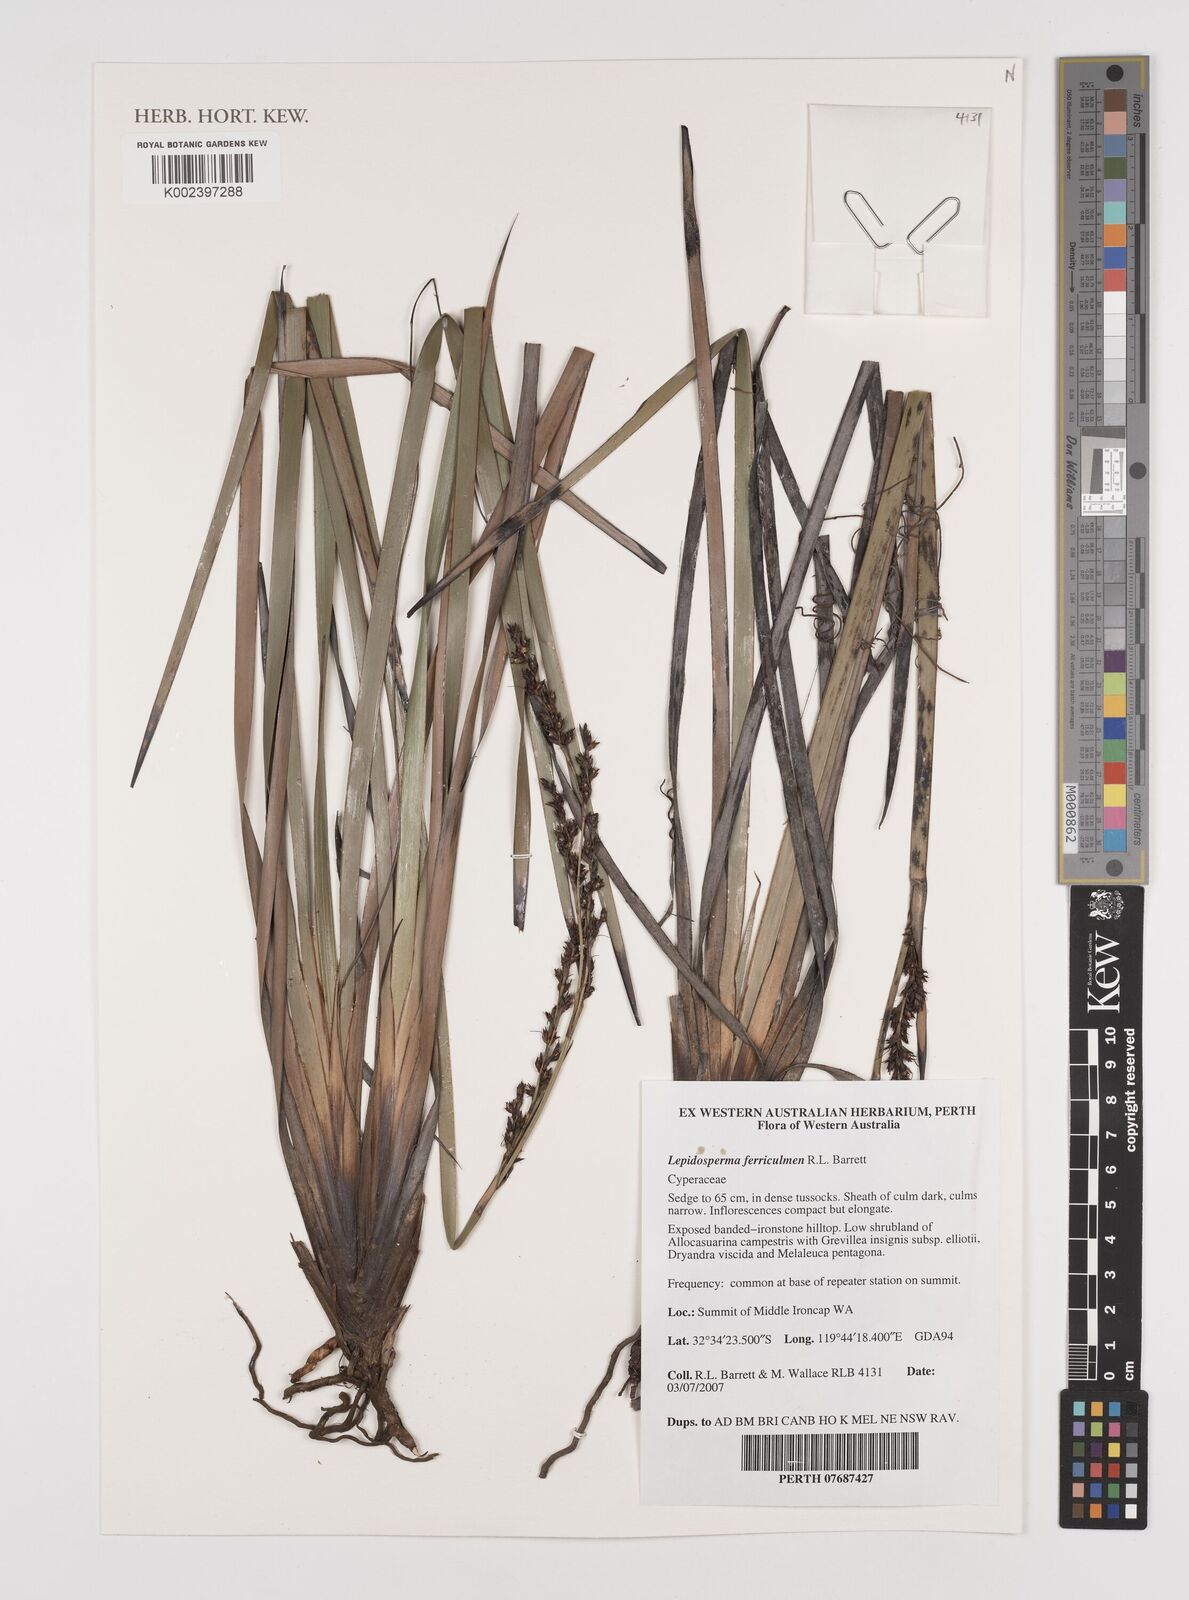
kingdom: Plantae
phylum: Tracheophyta
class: Liliopsida
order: Poales
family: Cyperaceae
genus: Lepidosperma
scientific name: Lepidosperma ferriculmen
